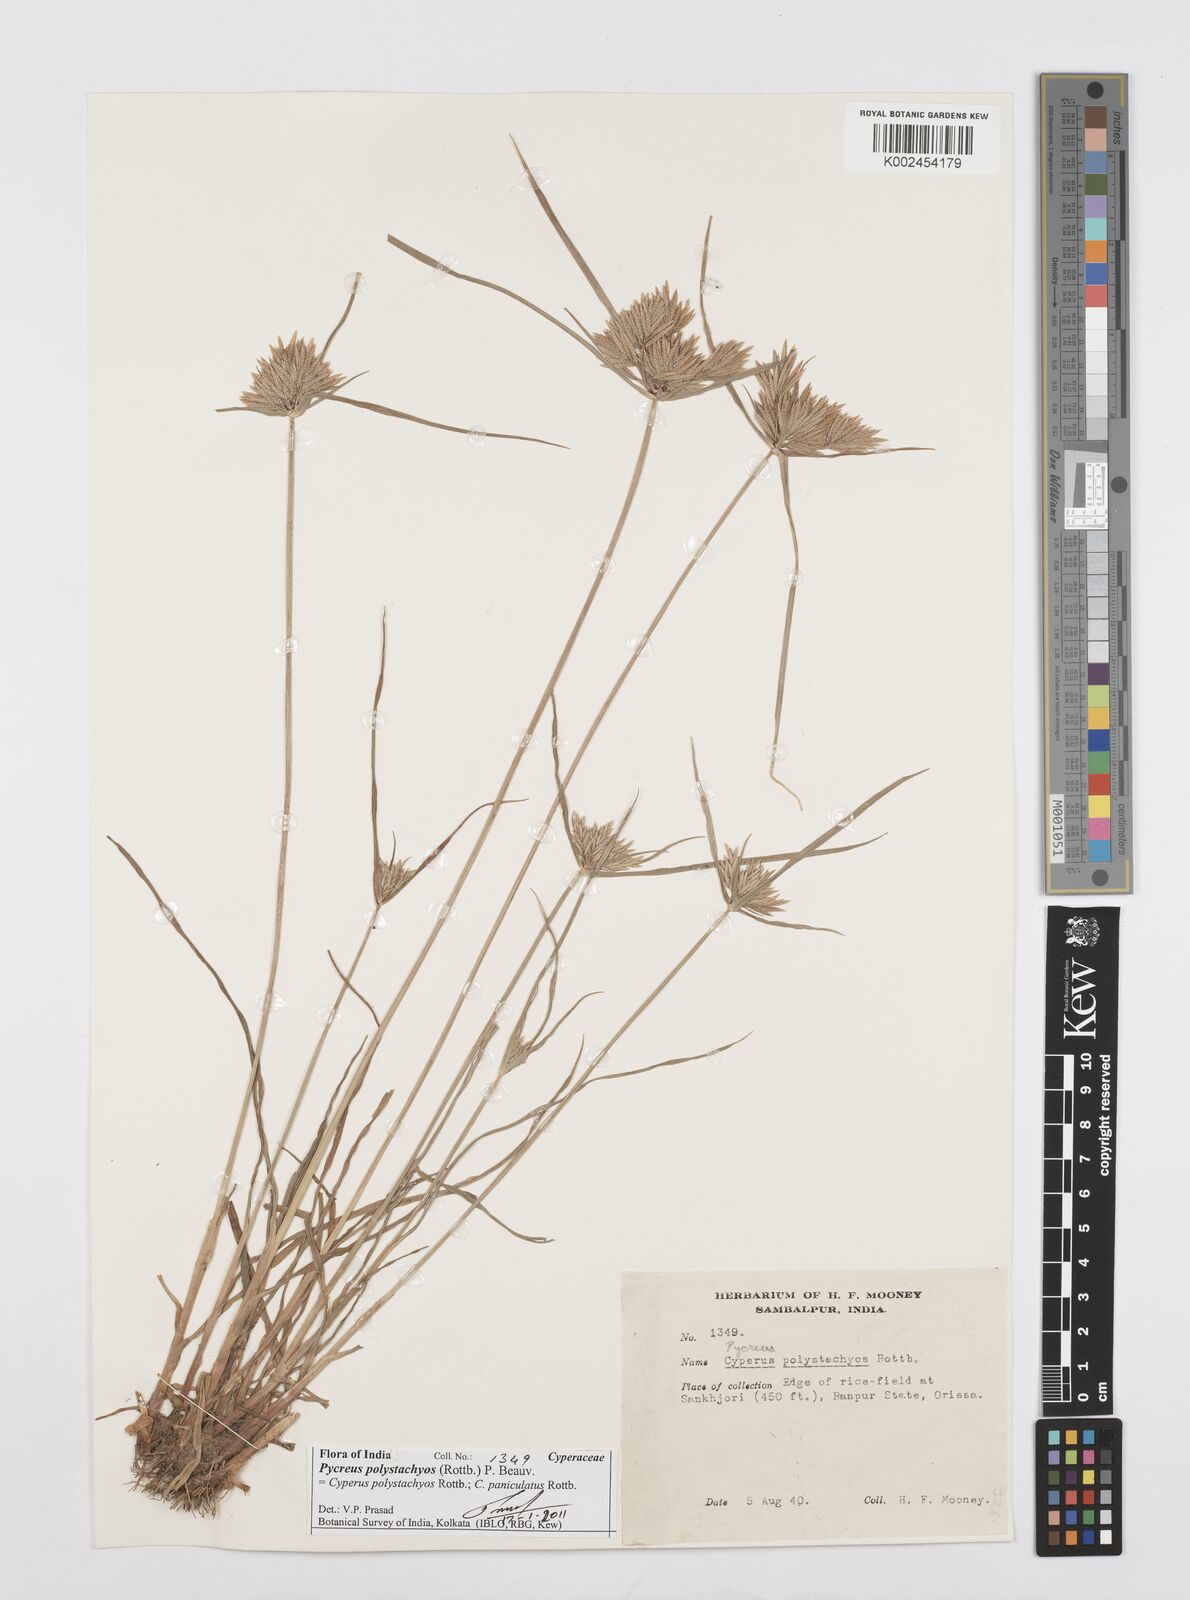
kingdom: Plantae
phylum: Tracheophyta
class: Liliopsida
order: Poales
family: Cyperaceae
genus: Cyperus
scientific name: Cyperus polystachyos
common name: Bunchy flat sedge
